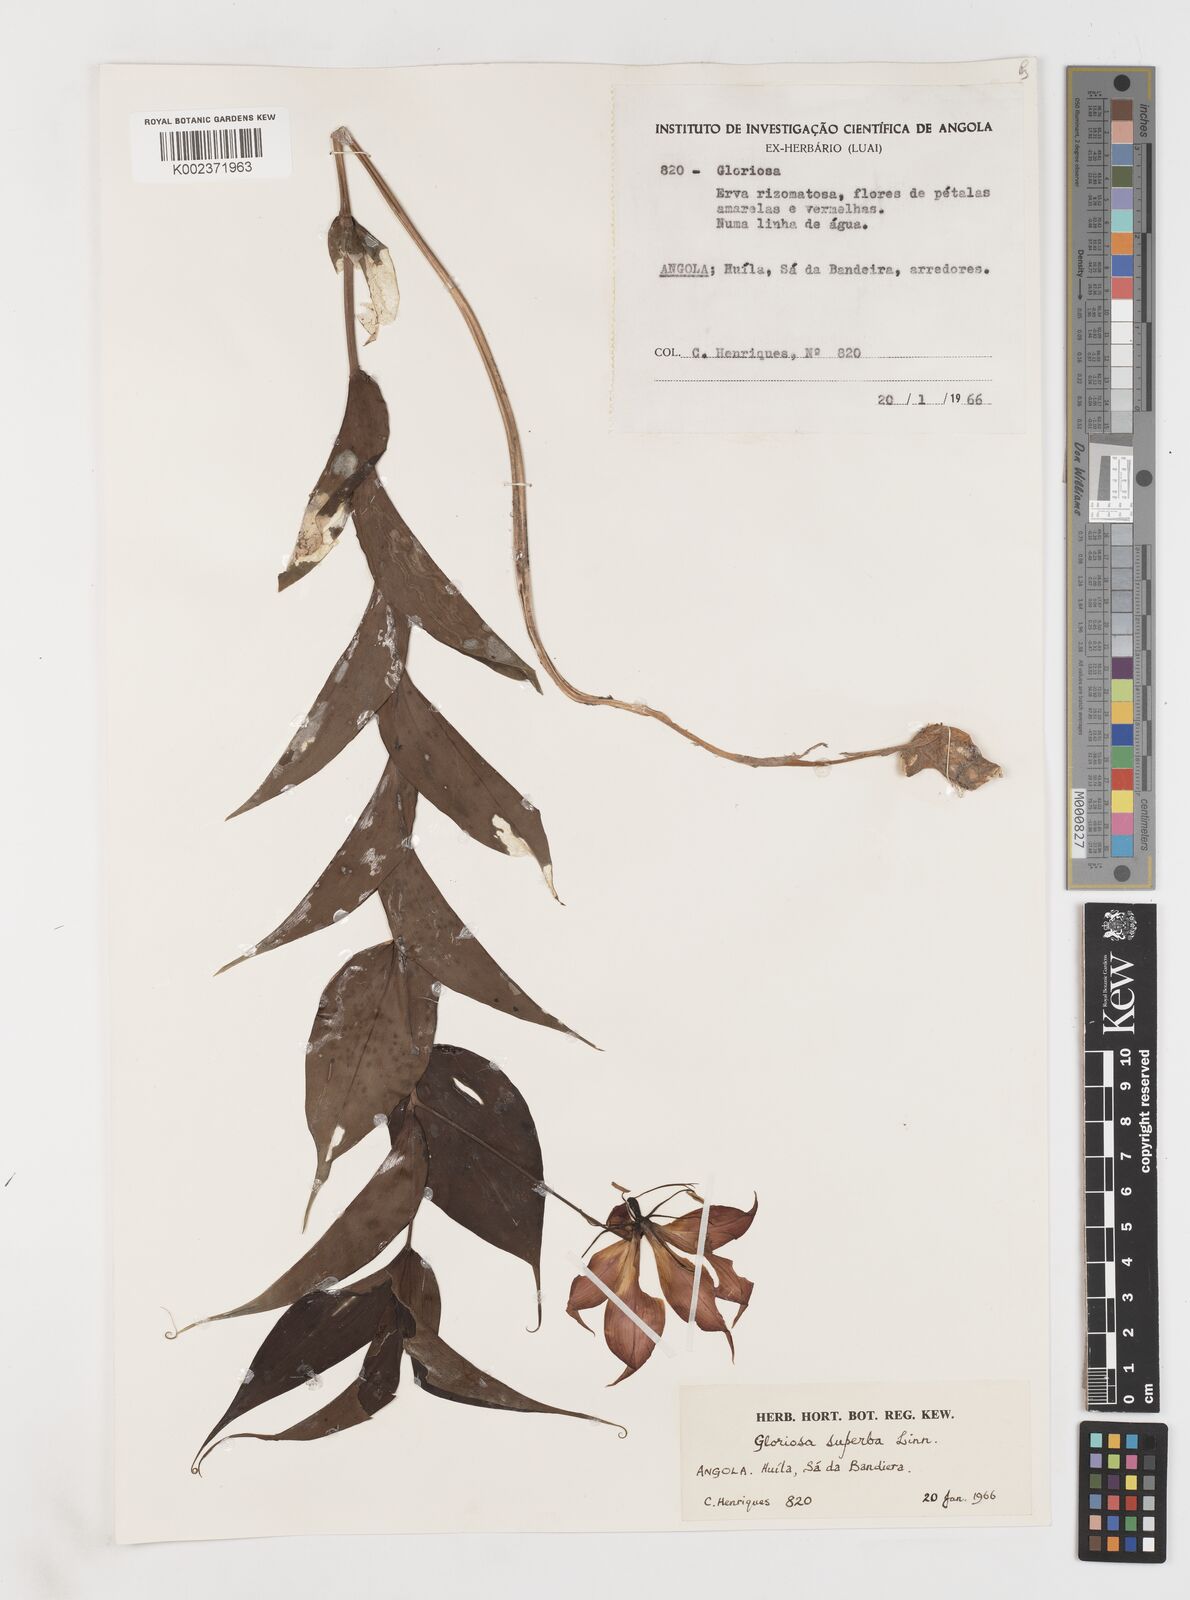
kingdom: Plantae
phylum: Tracheophyta
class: Liliopsida
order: Liliales
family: Colchicaceae
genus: Gloriosa
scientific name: Gloriosa simplex
